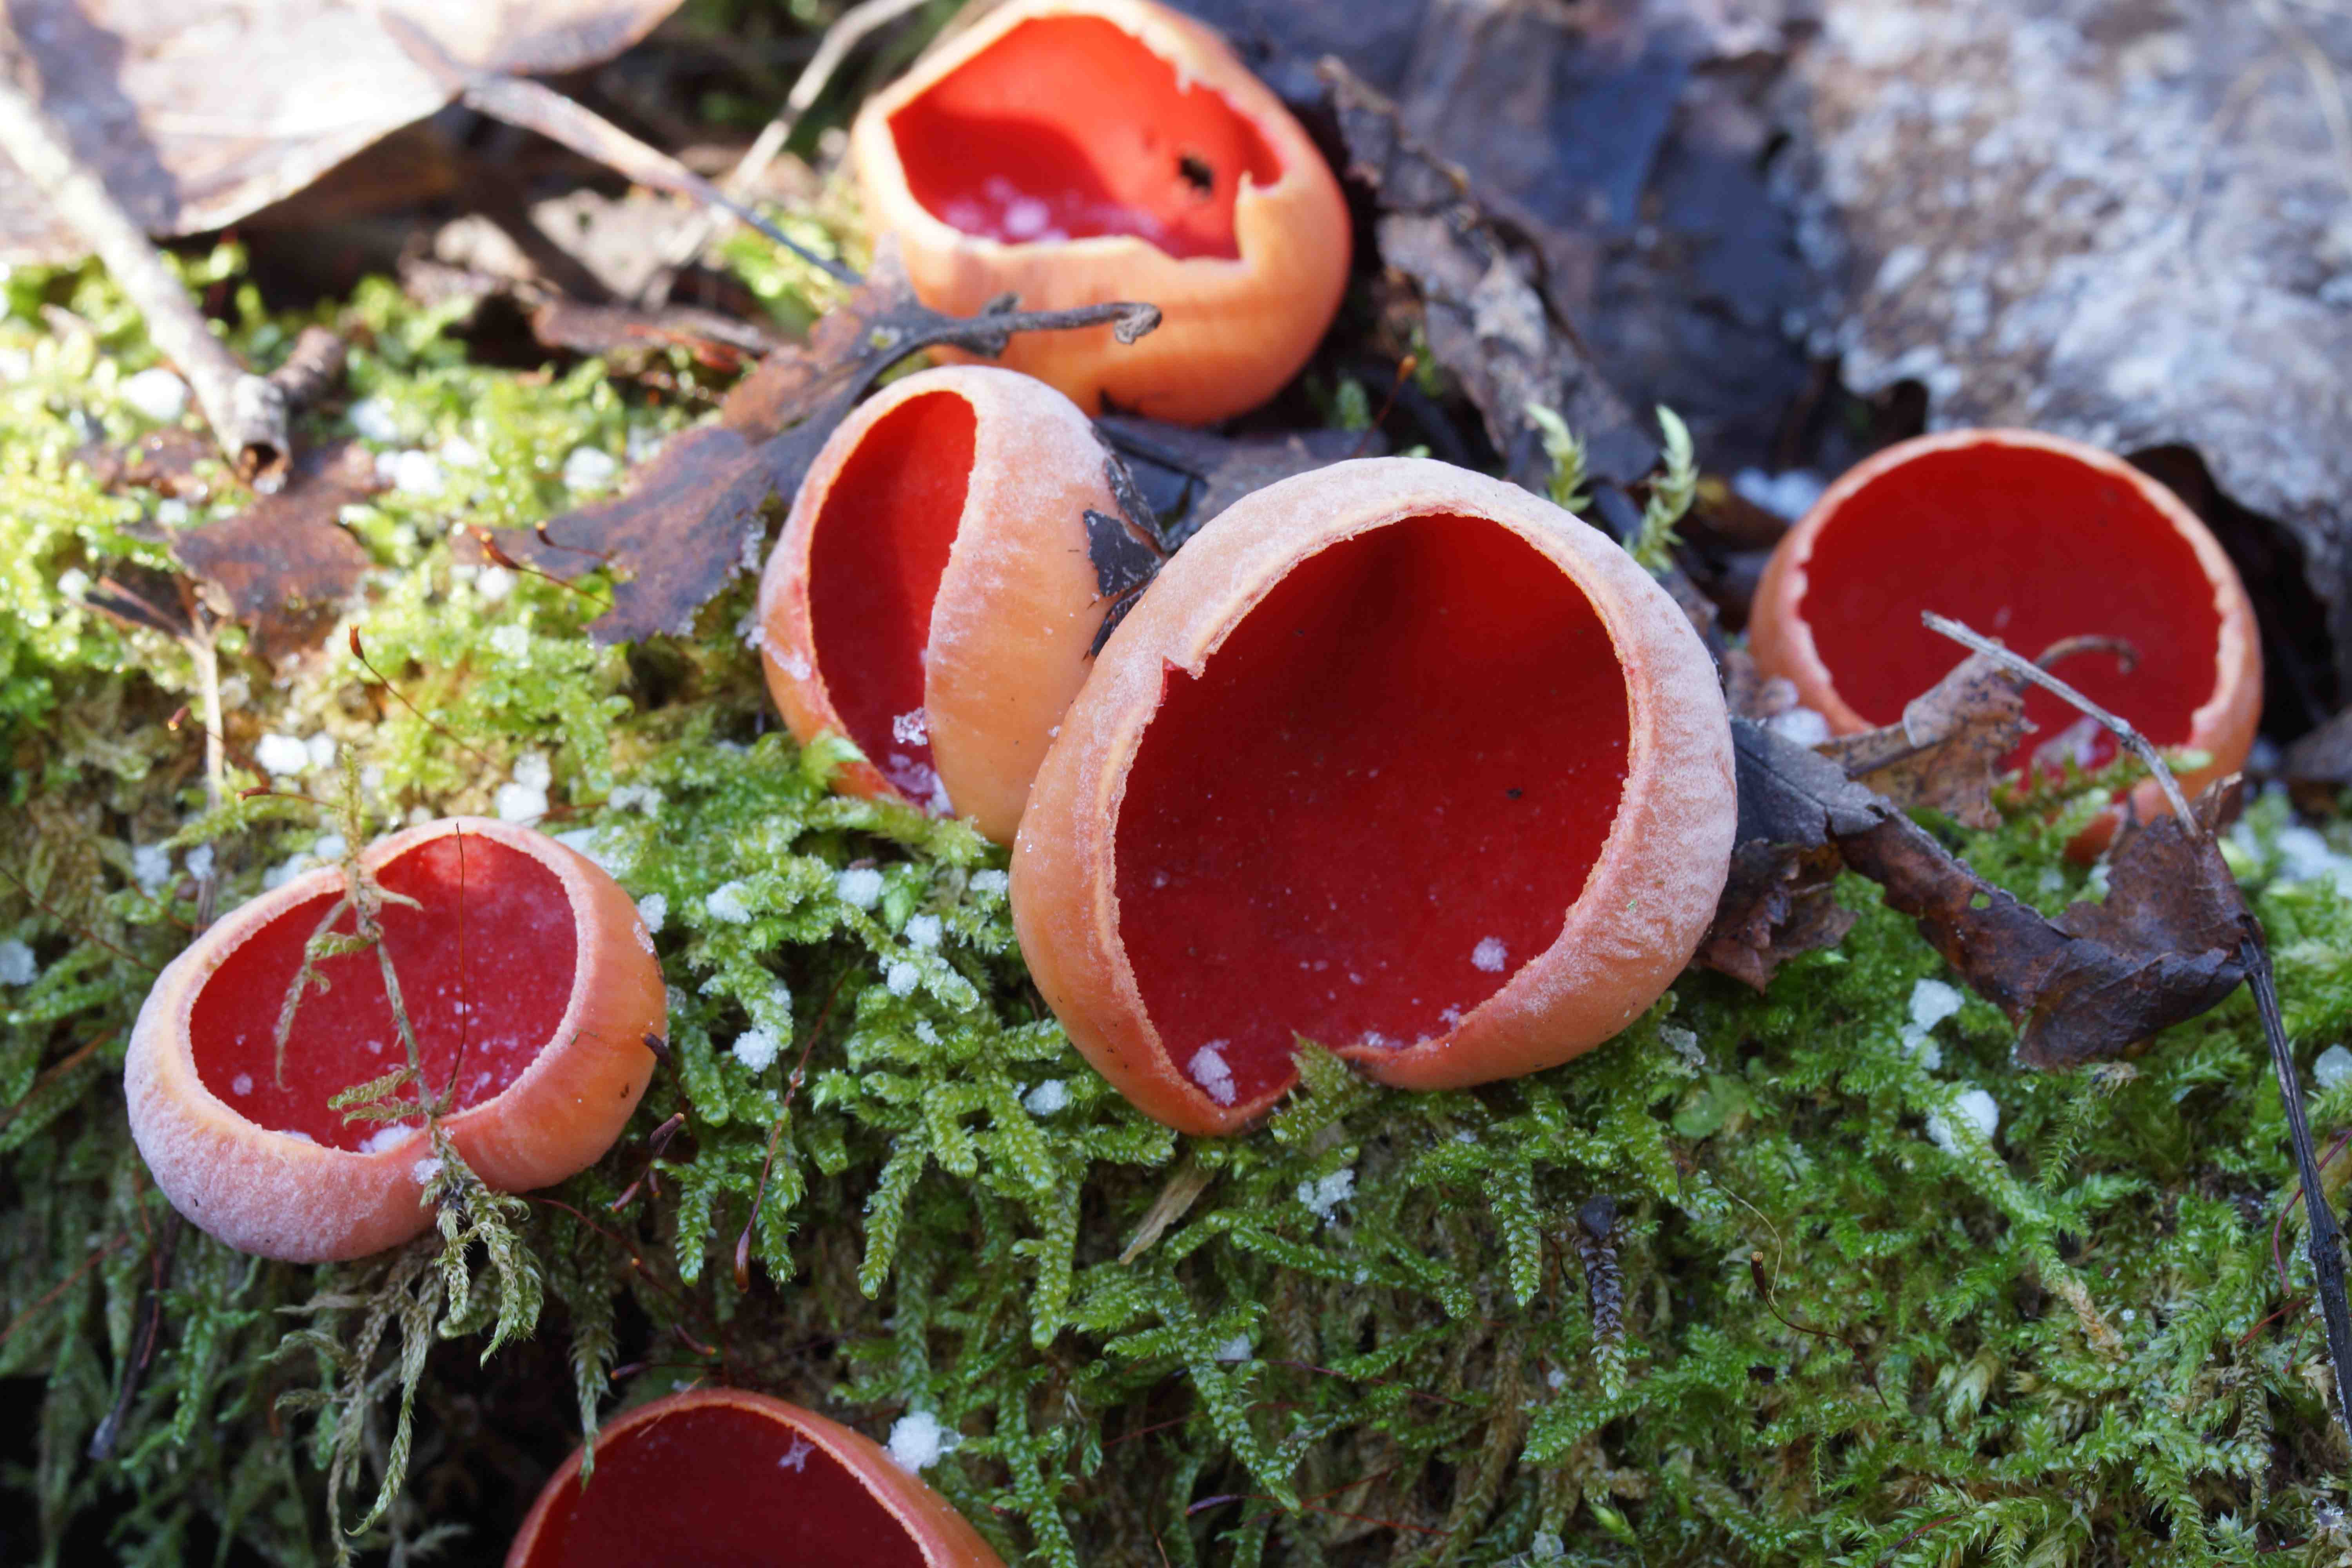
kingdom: Fungi
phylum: Ascomycota
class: Pezizomycetes
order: Pezizales
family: Sarcoscyphaceae
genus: Sarcoscypha
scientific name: Sarcoscypha austriaca
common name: krølhåret pragtbæger
